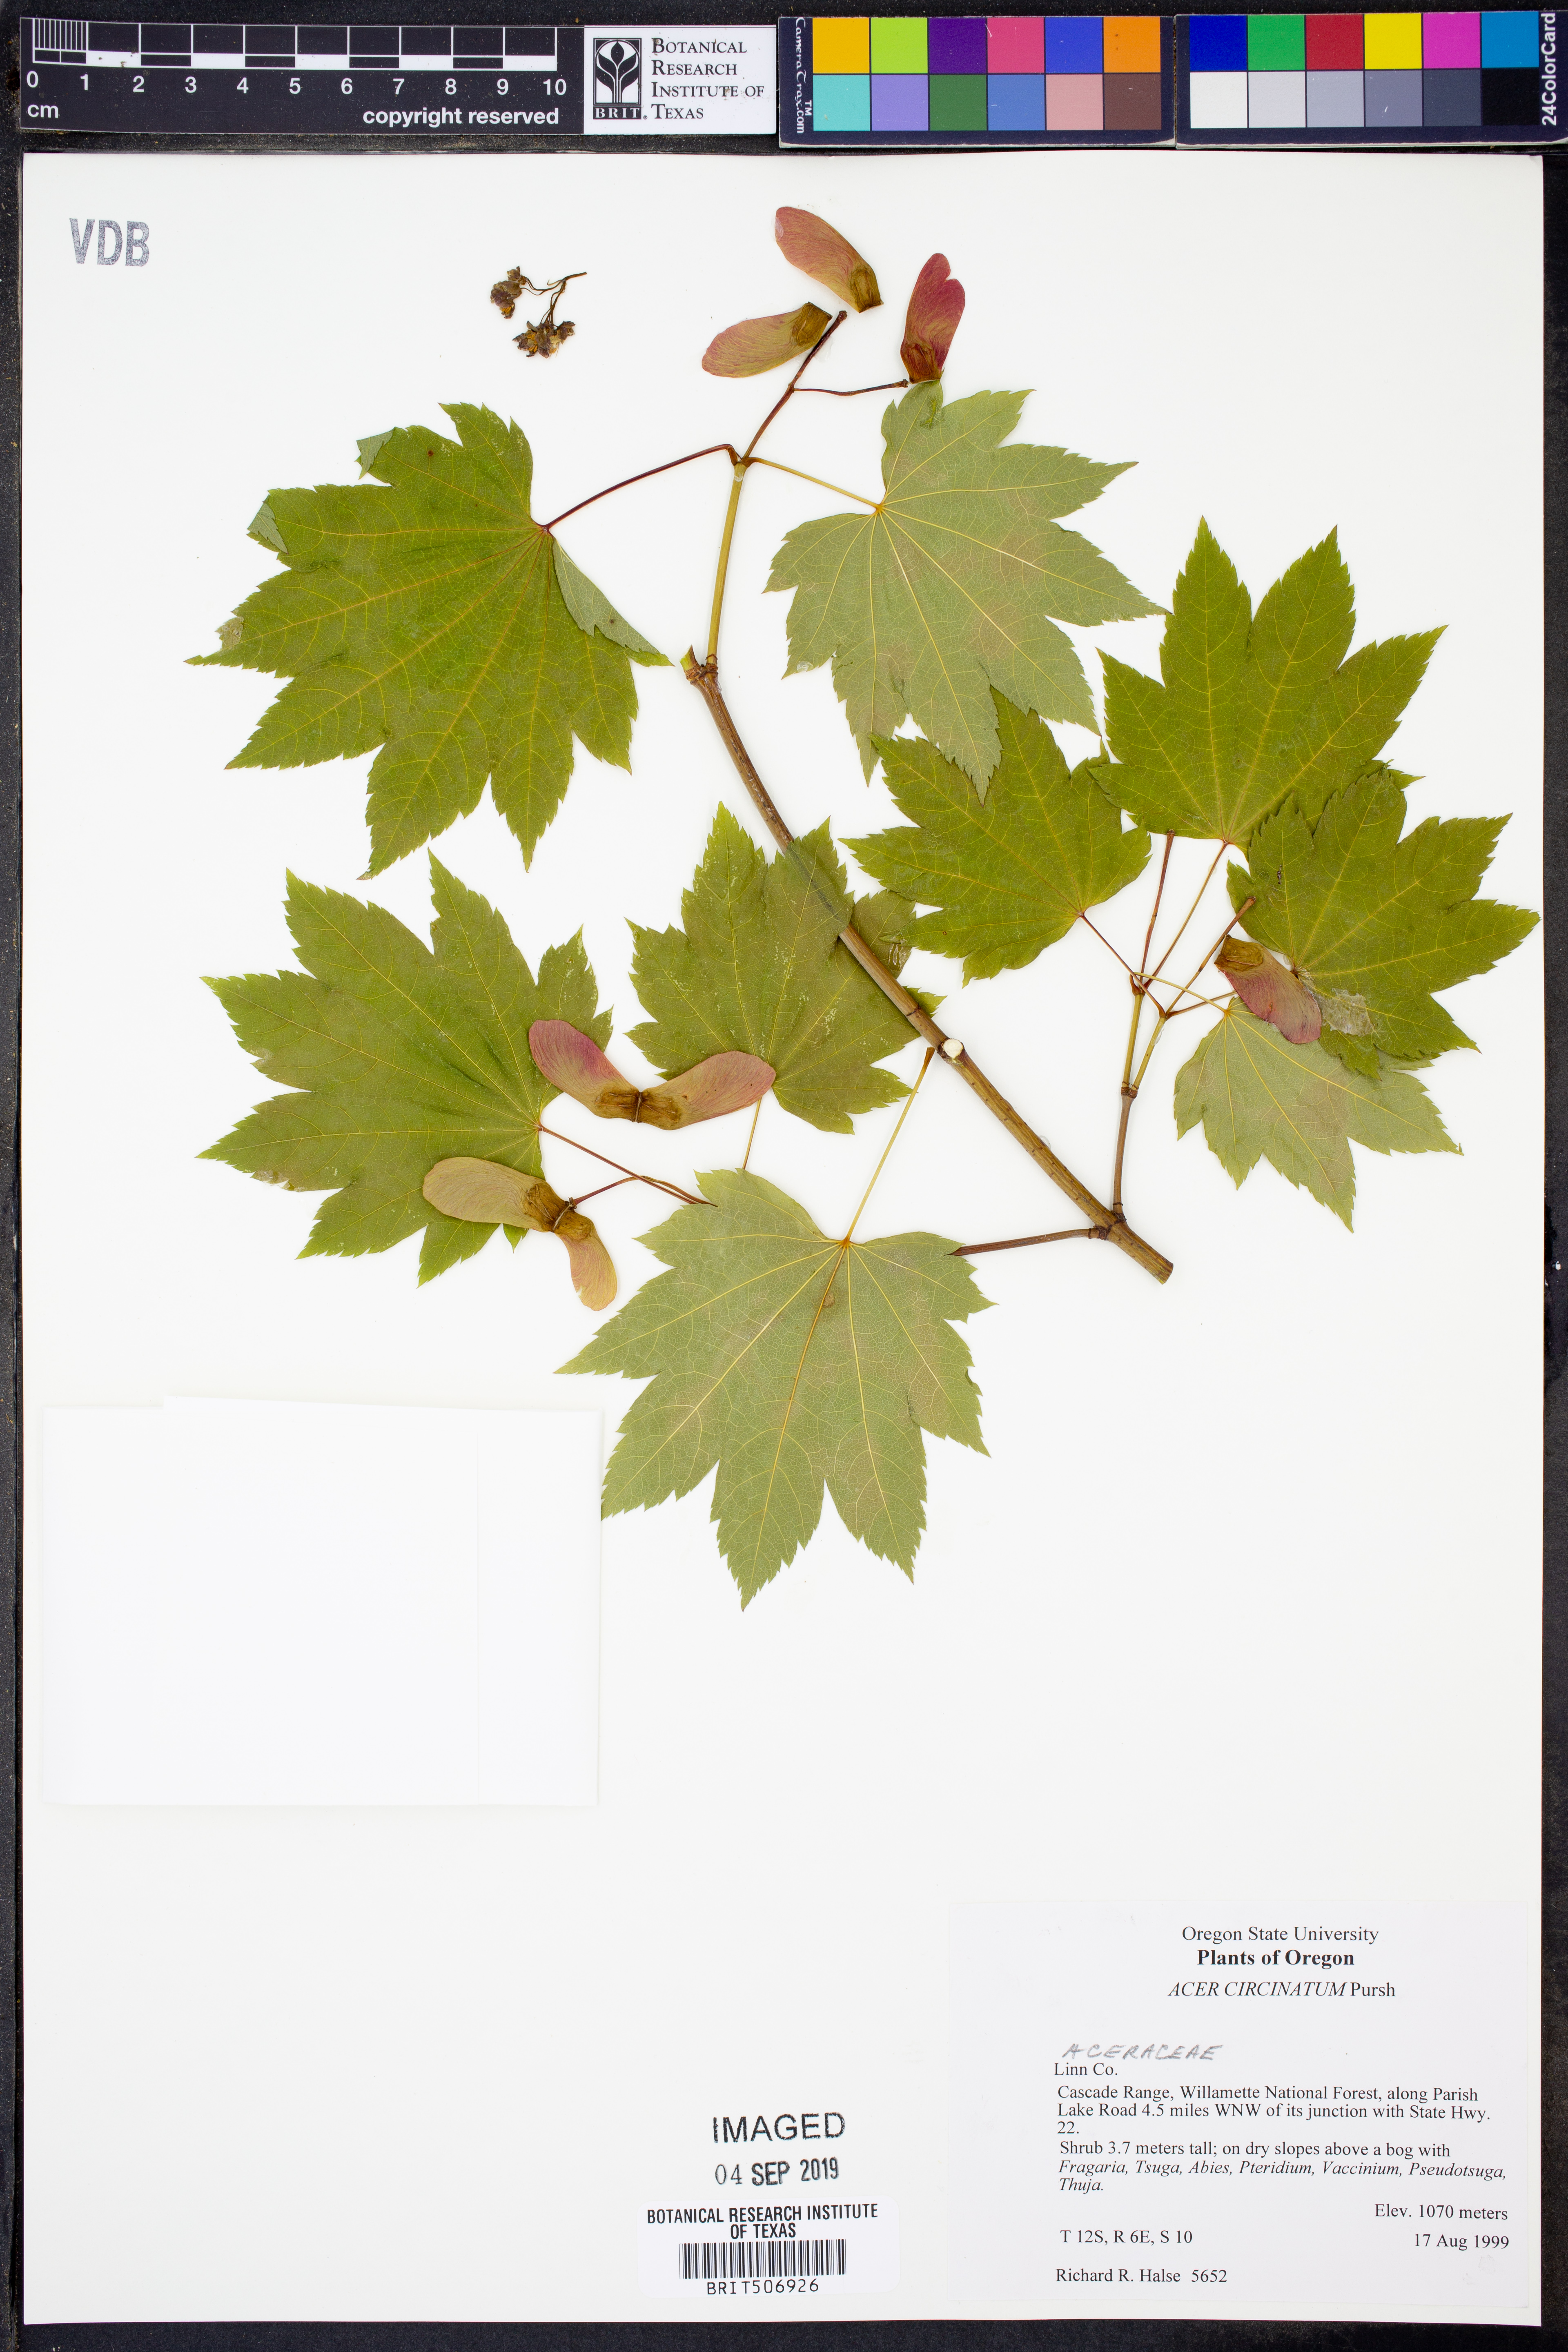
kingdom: Plantae
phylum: Tracheophyta
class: Magnoliopsida
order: Sapindales
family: Sapindaceae
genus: Acer
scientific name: Acer circinatum
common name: Vine maple
